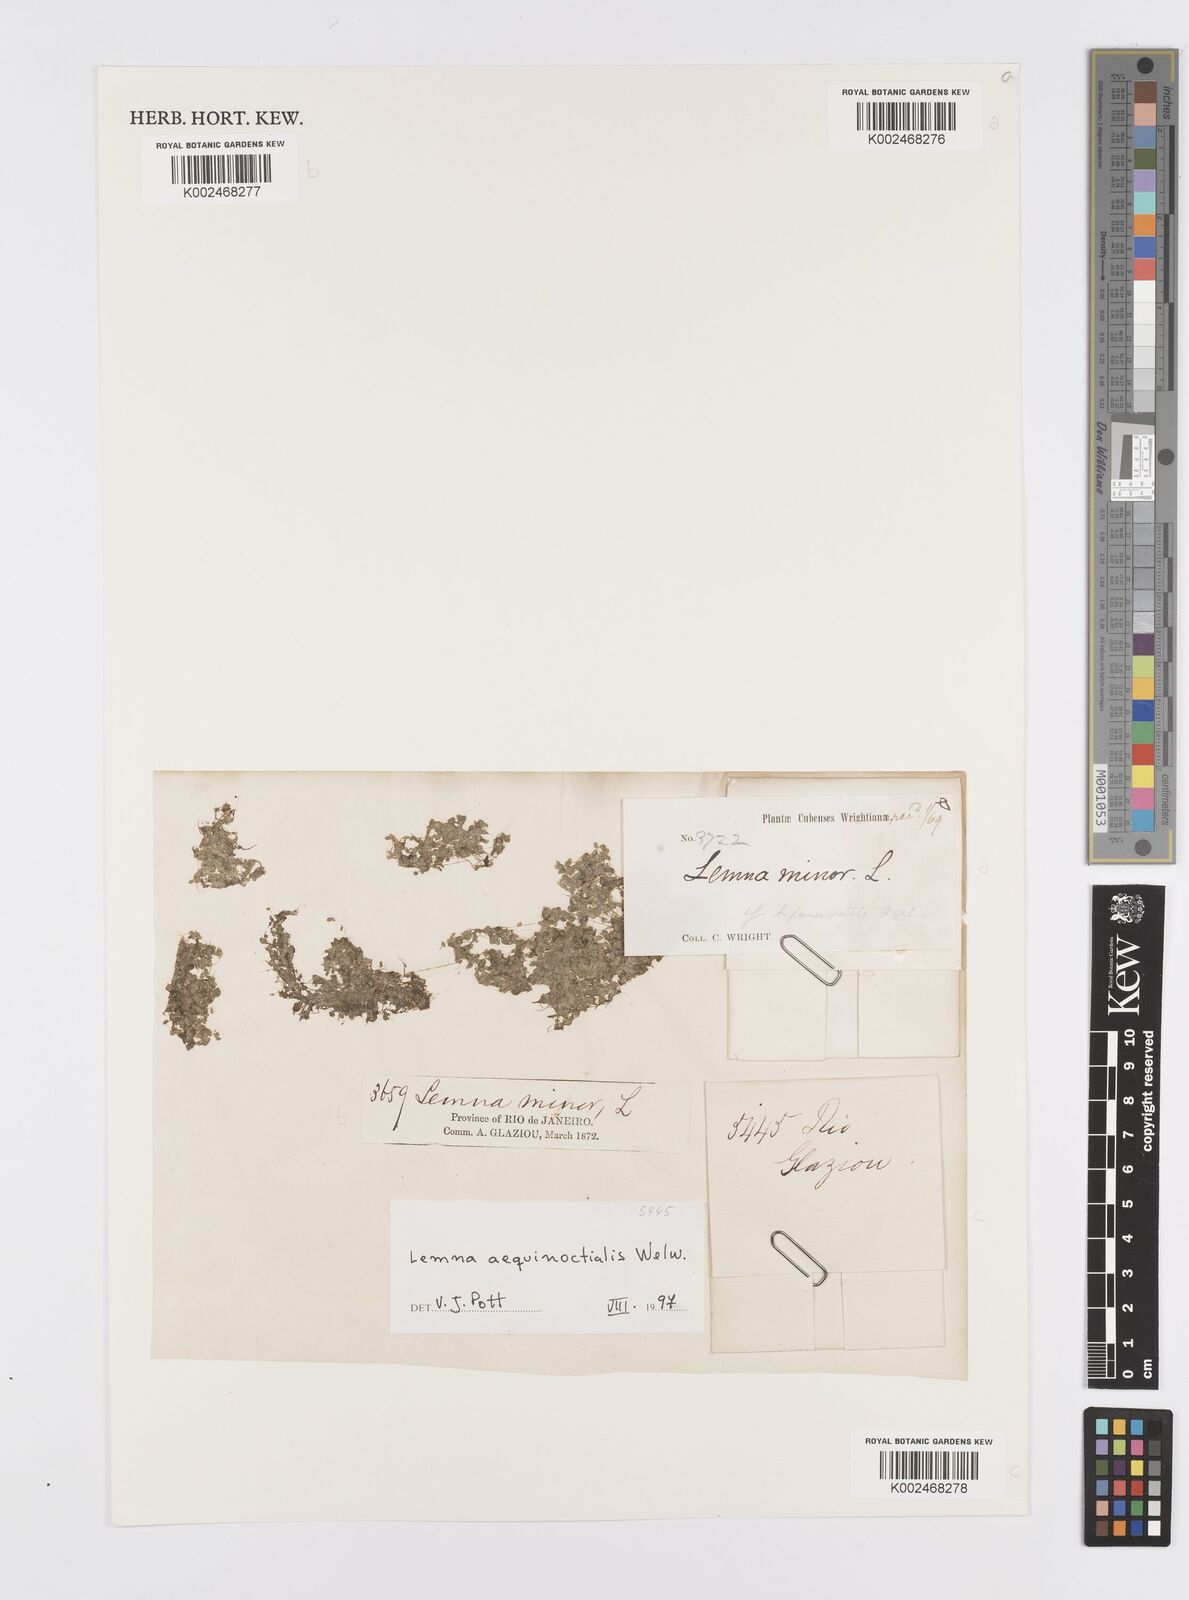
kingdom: Plantae
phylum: Tracheophyta
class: Liliopsida
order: Alismatales
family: Araceae
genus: Lemna
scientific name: Lemna aequinoctialis
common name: Duckweed
